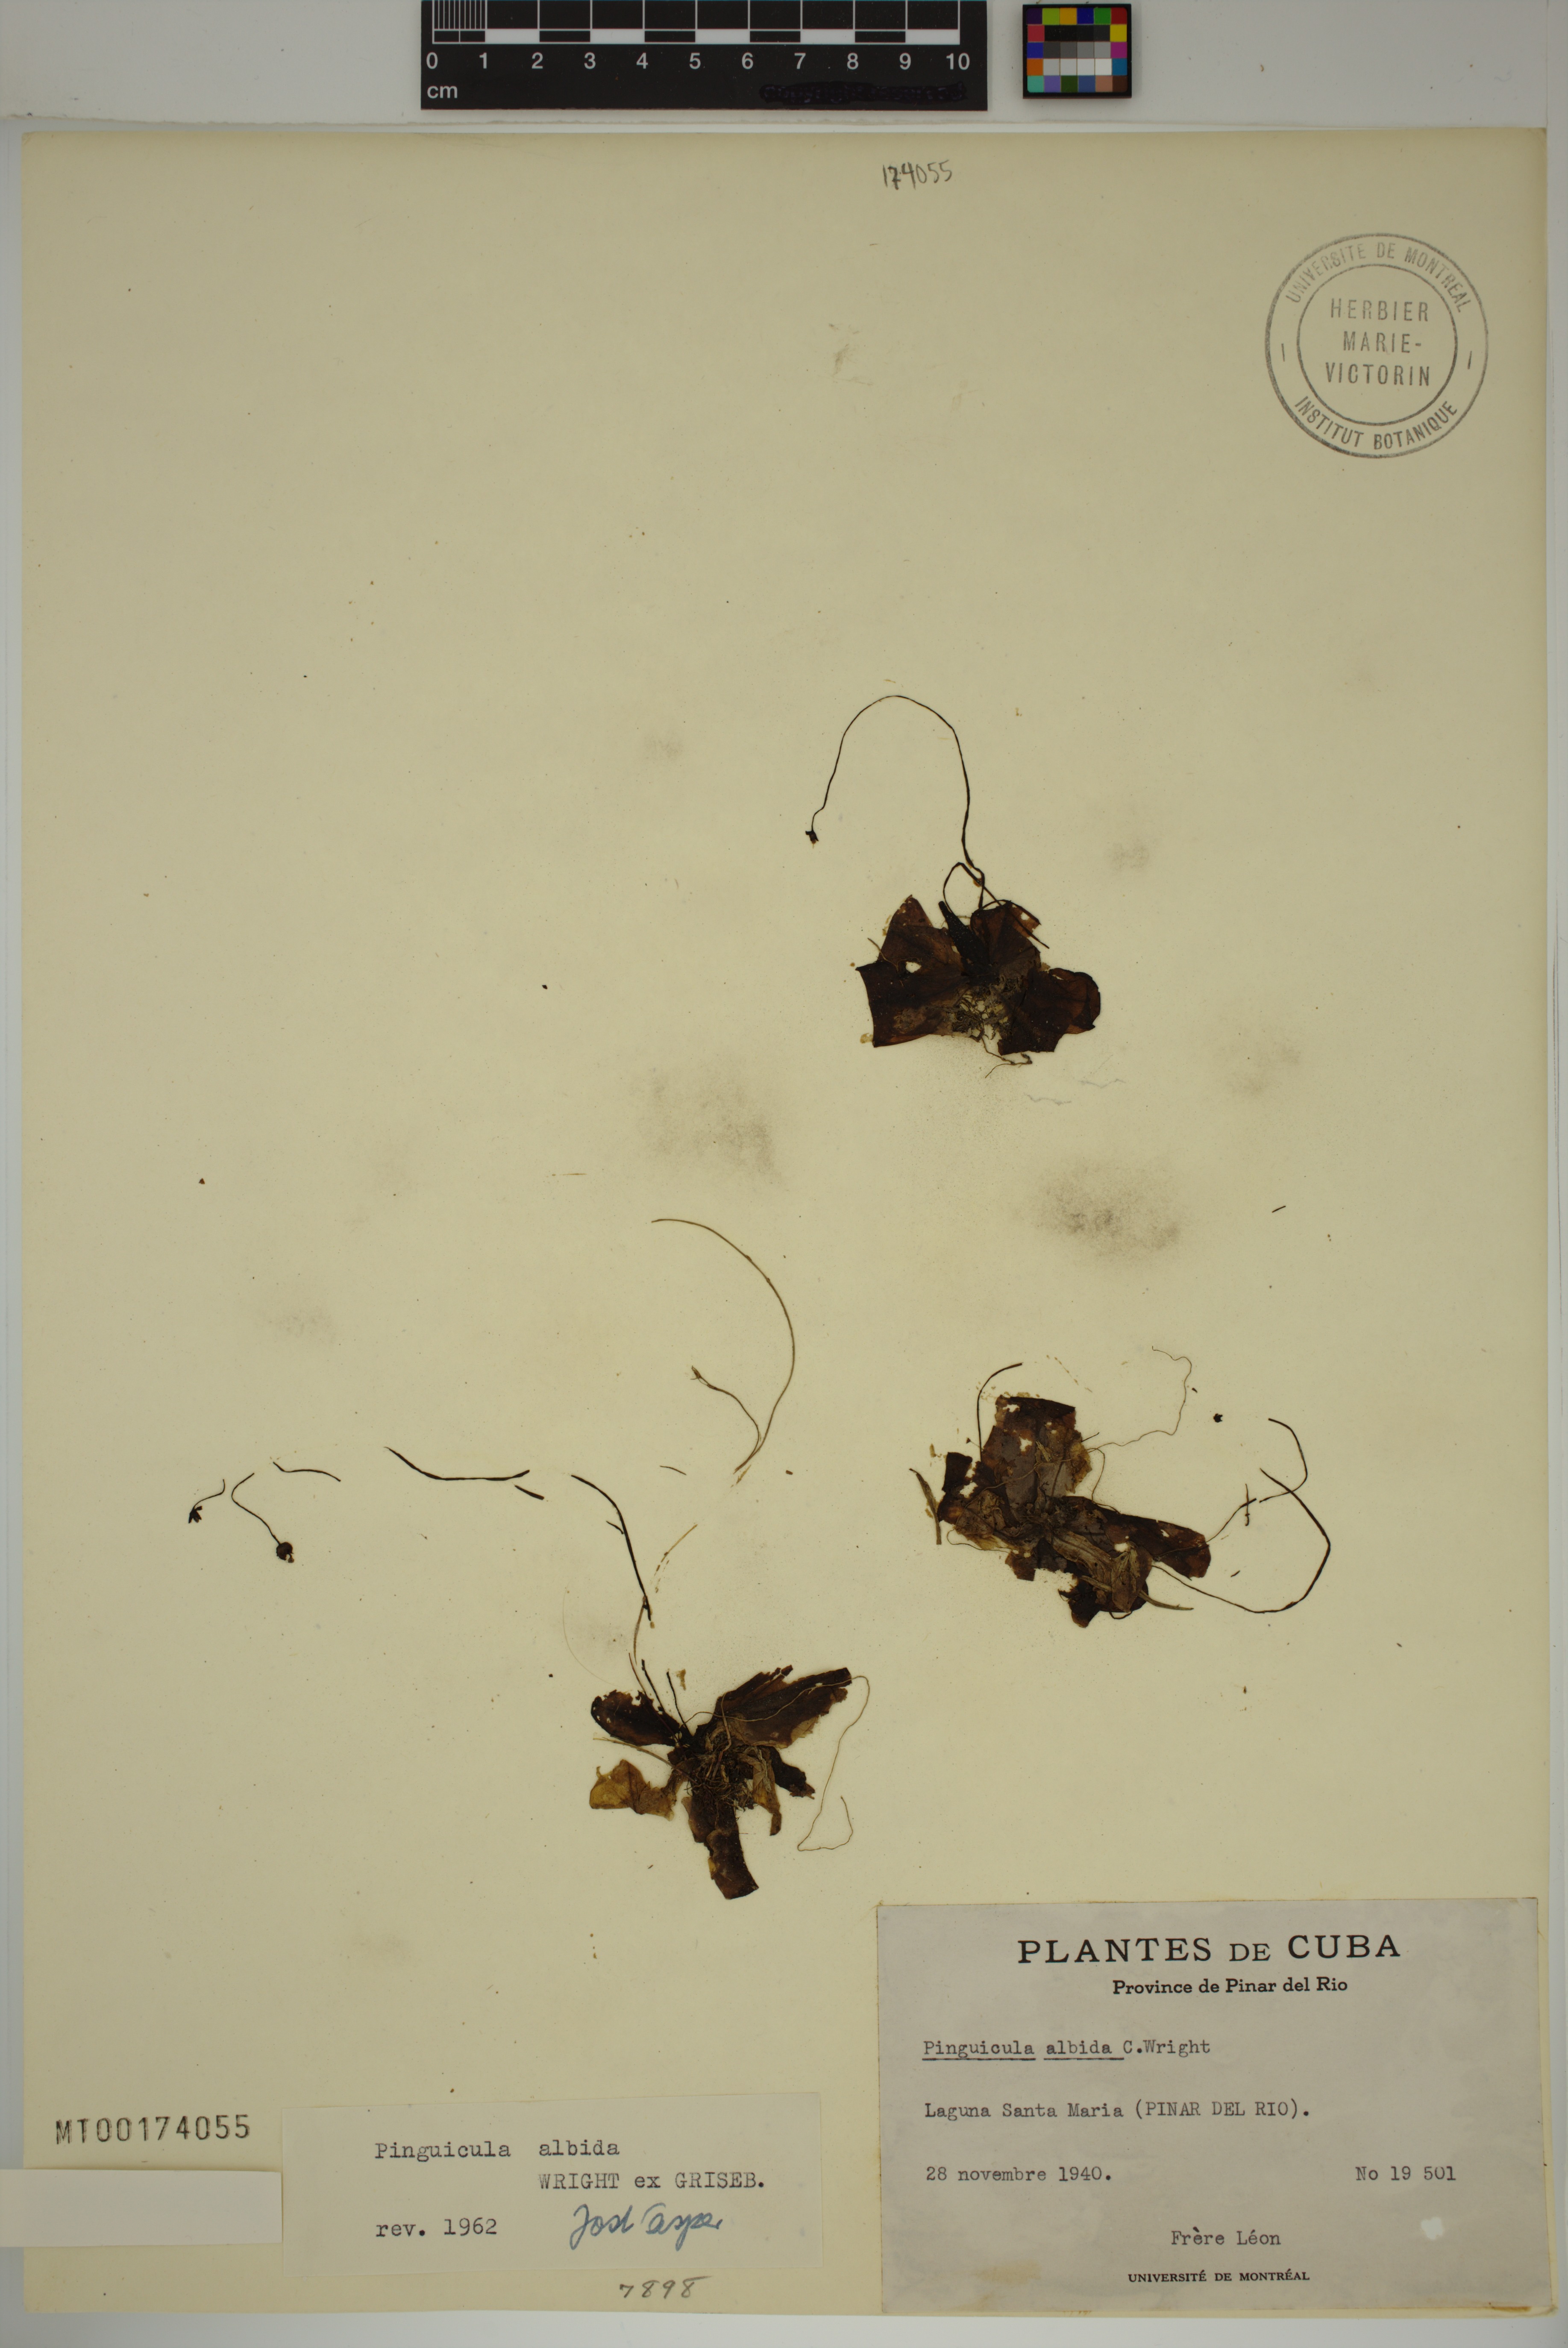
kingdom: Plantae
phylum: Tracheophyta
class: Magnoliopsida
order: Lamiales
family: Lentibulariaceae
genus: Pinguicula
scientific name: Pinguicula albida
